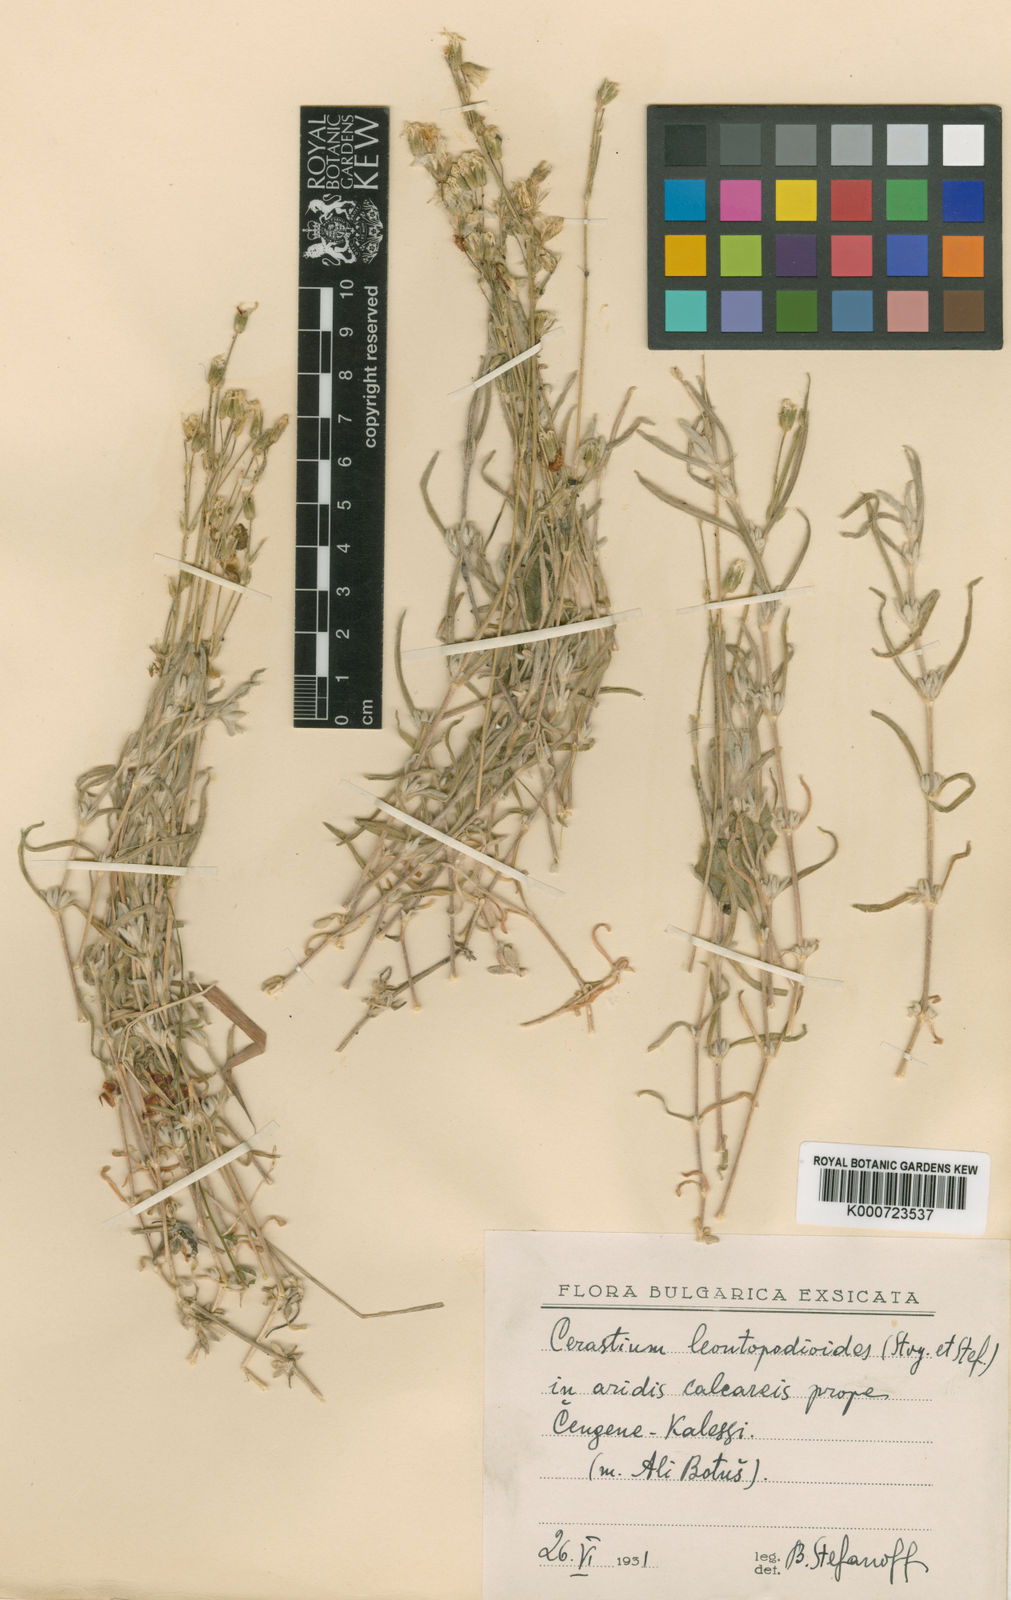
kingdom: Plantae
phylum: Tracheophyta
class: Magnoliopsida
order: Caryophyllales
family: Caryophyllaceae
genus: Cerastium
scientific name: Cerastium
